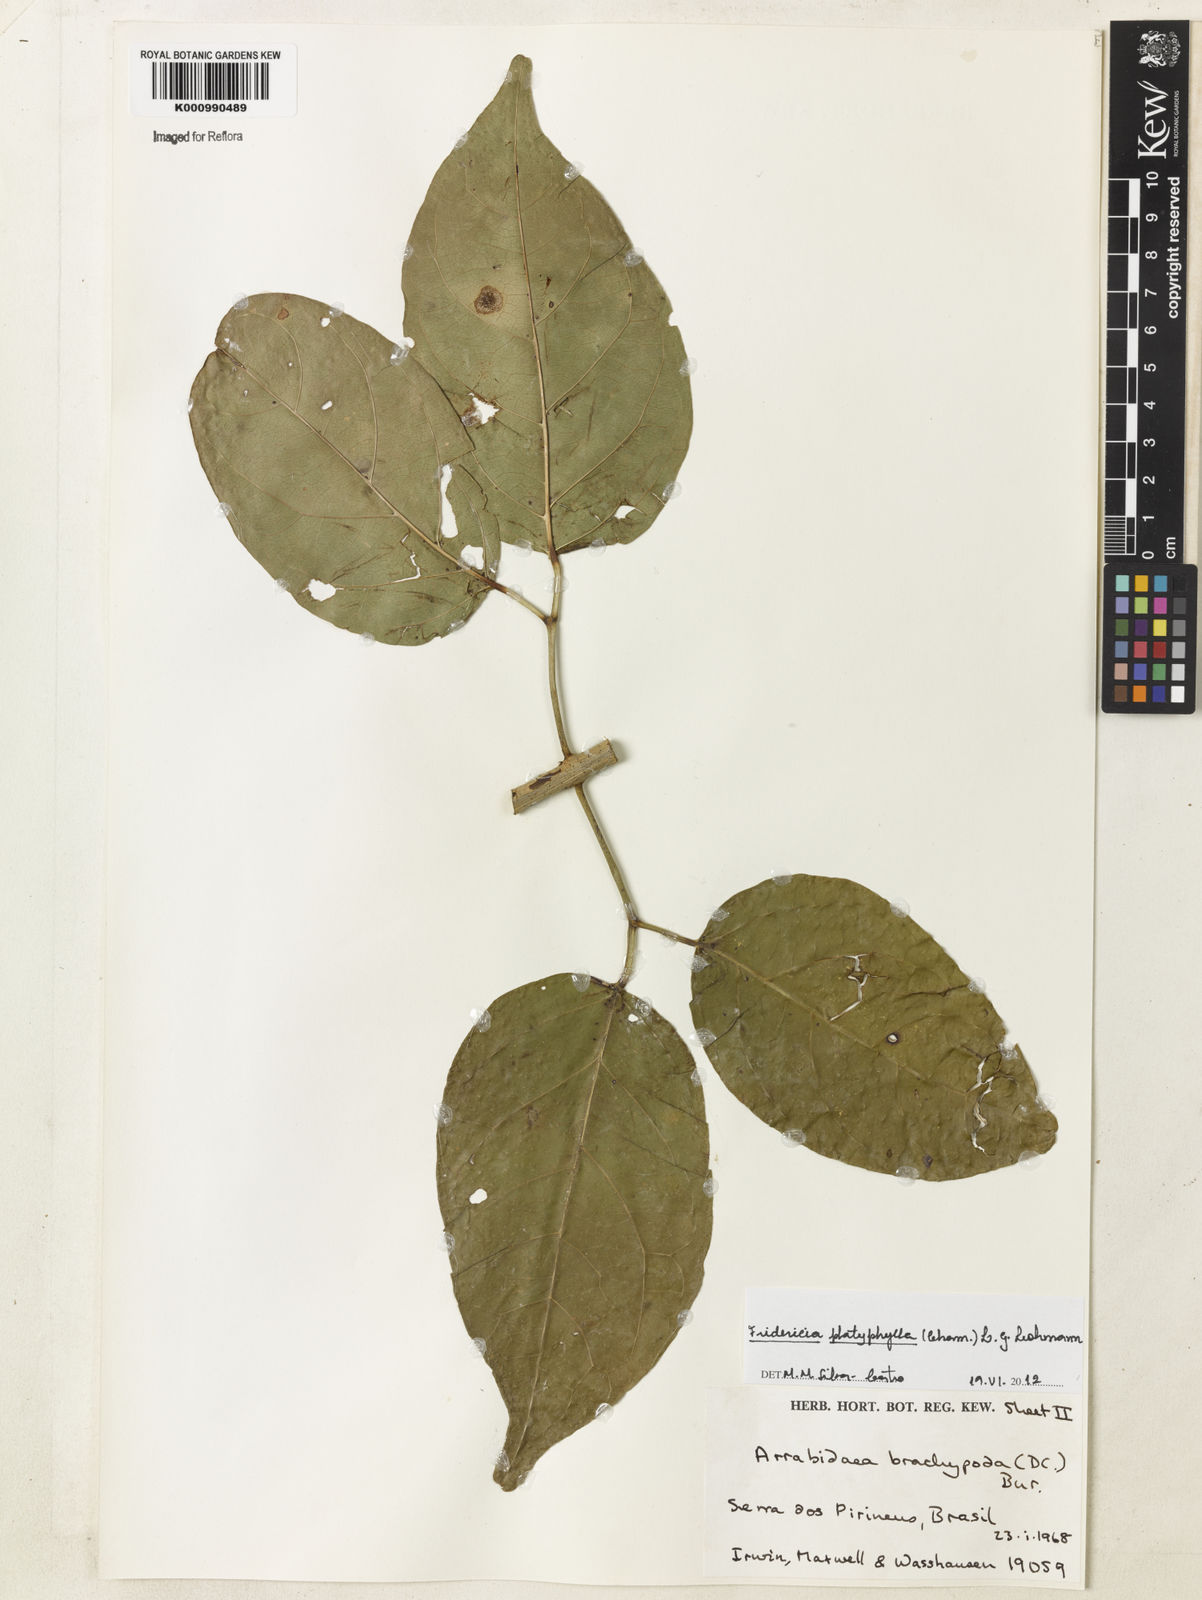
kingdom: Plantae
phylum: Tracheophyta
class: Magnoliopsida
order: Lamiales
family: Bignoniaceae
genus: Fridericia
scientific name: Fridericia platyphylla
